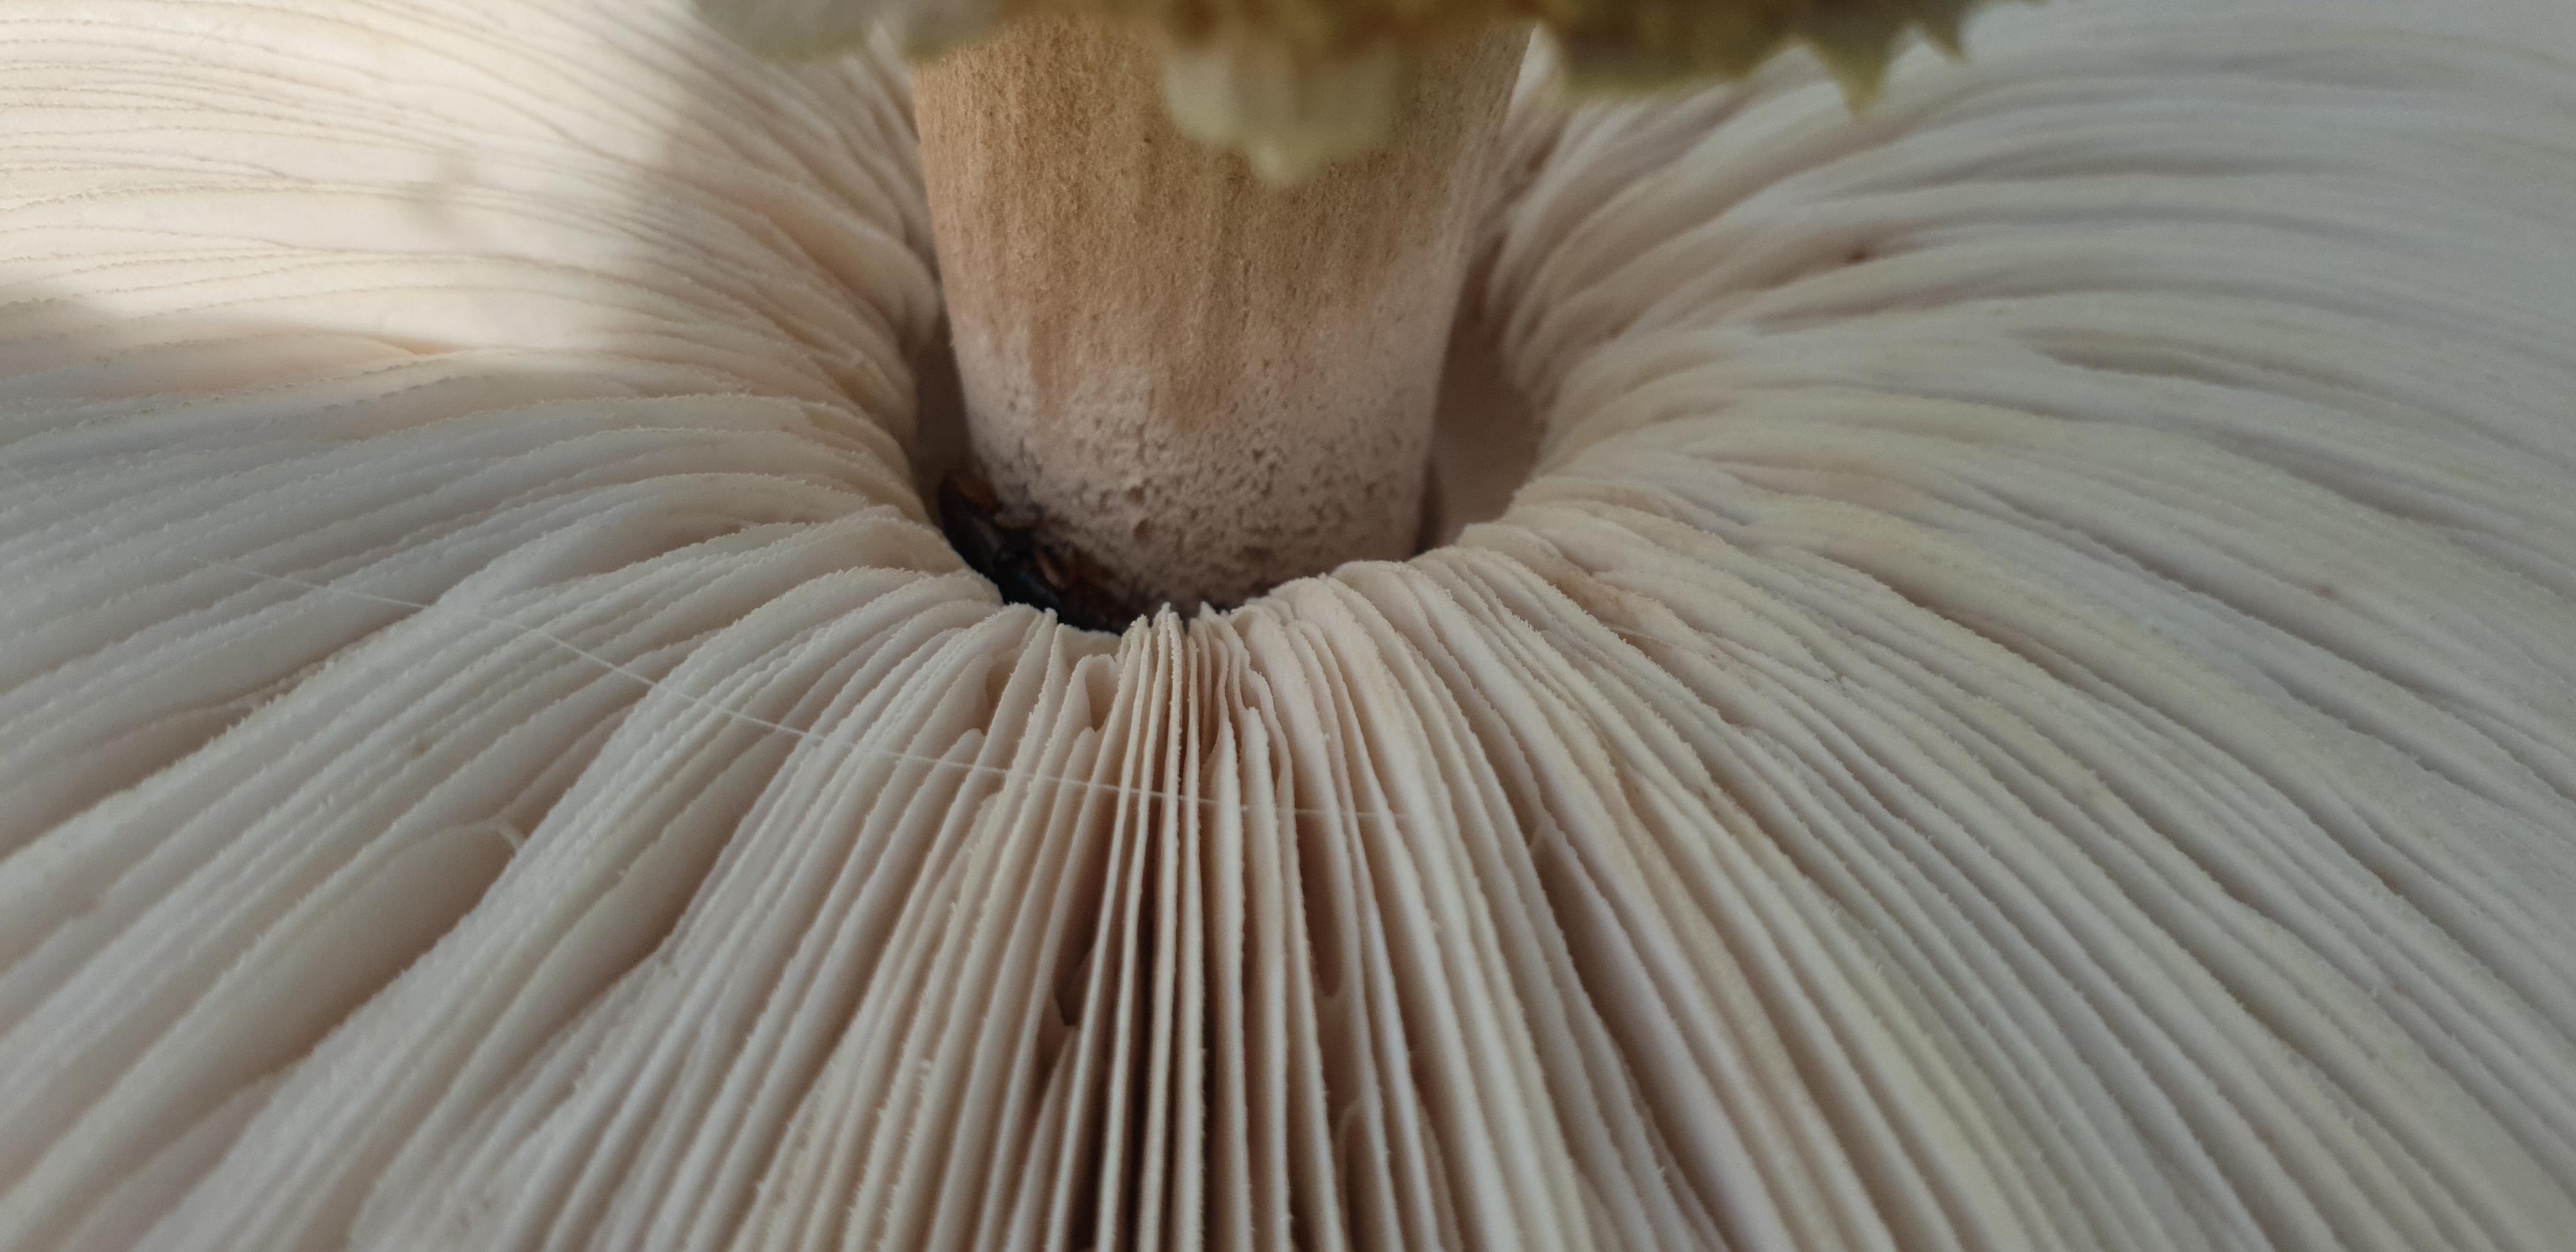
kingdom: Fungi
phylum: Basidiomycota
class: Agaricomycetes
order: Agaricales
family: Agaricaceae
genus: Macrolepiota
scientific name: Macrolepiota procera
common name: stor kæmpeparasolhat
